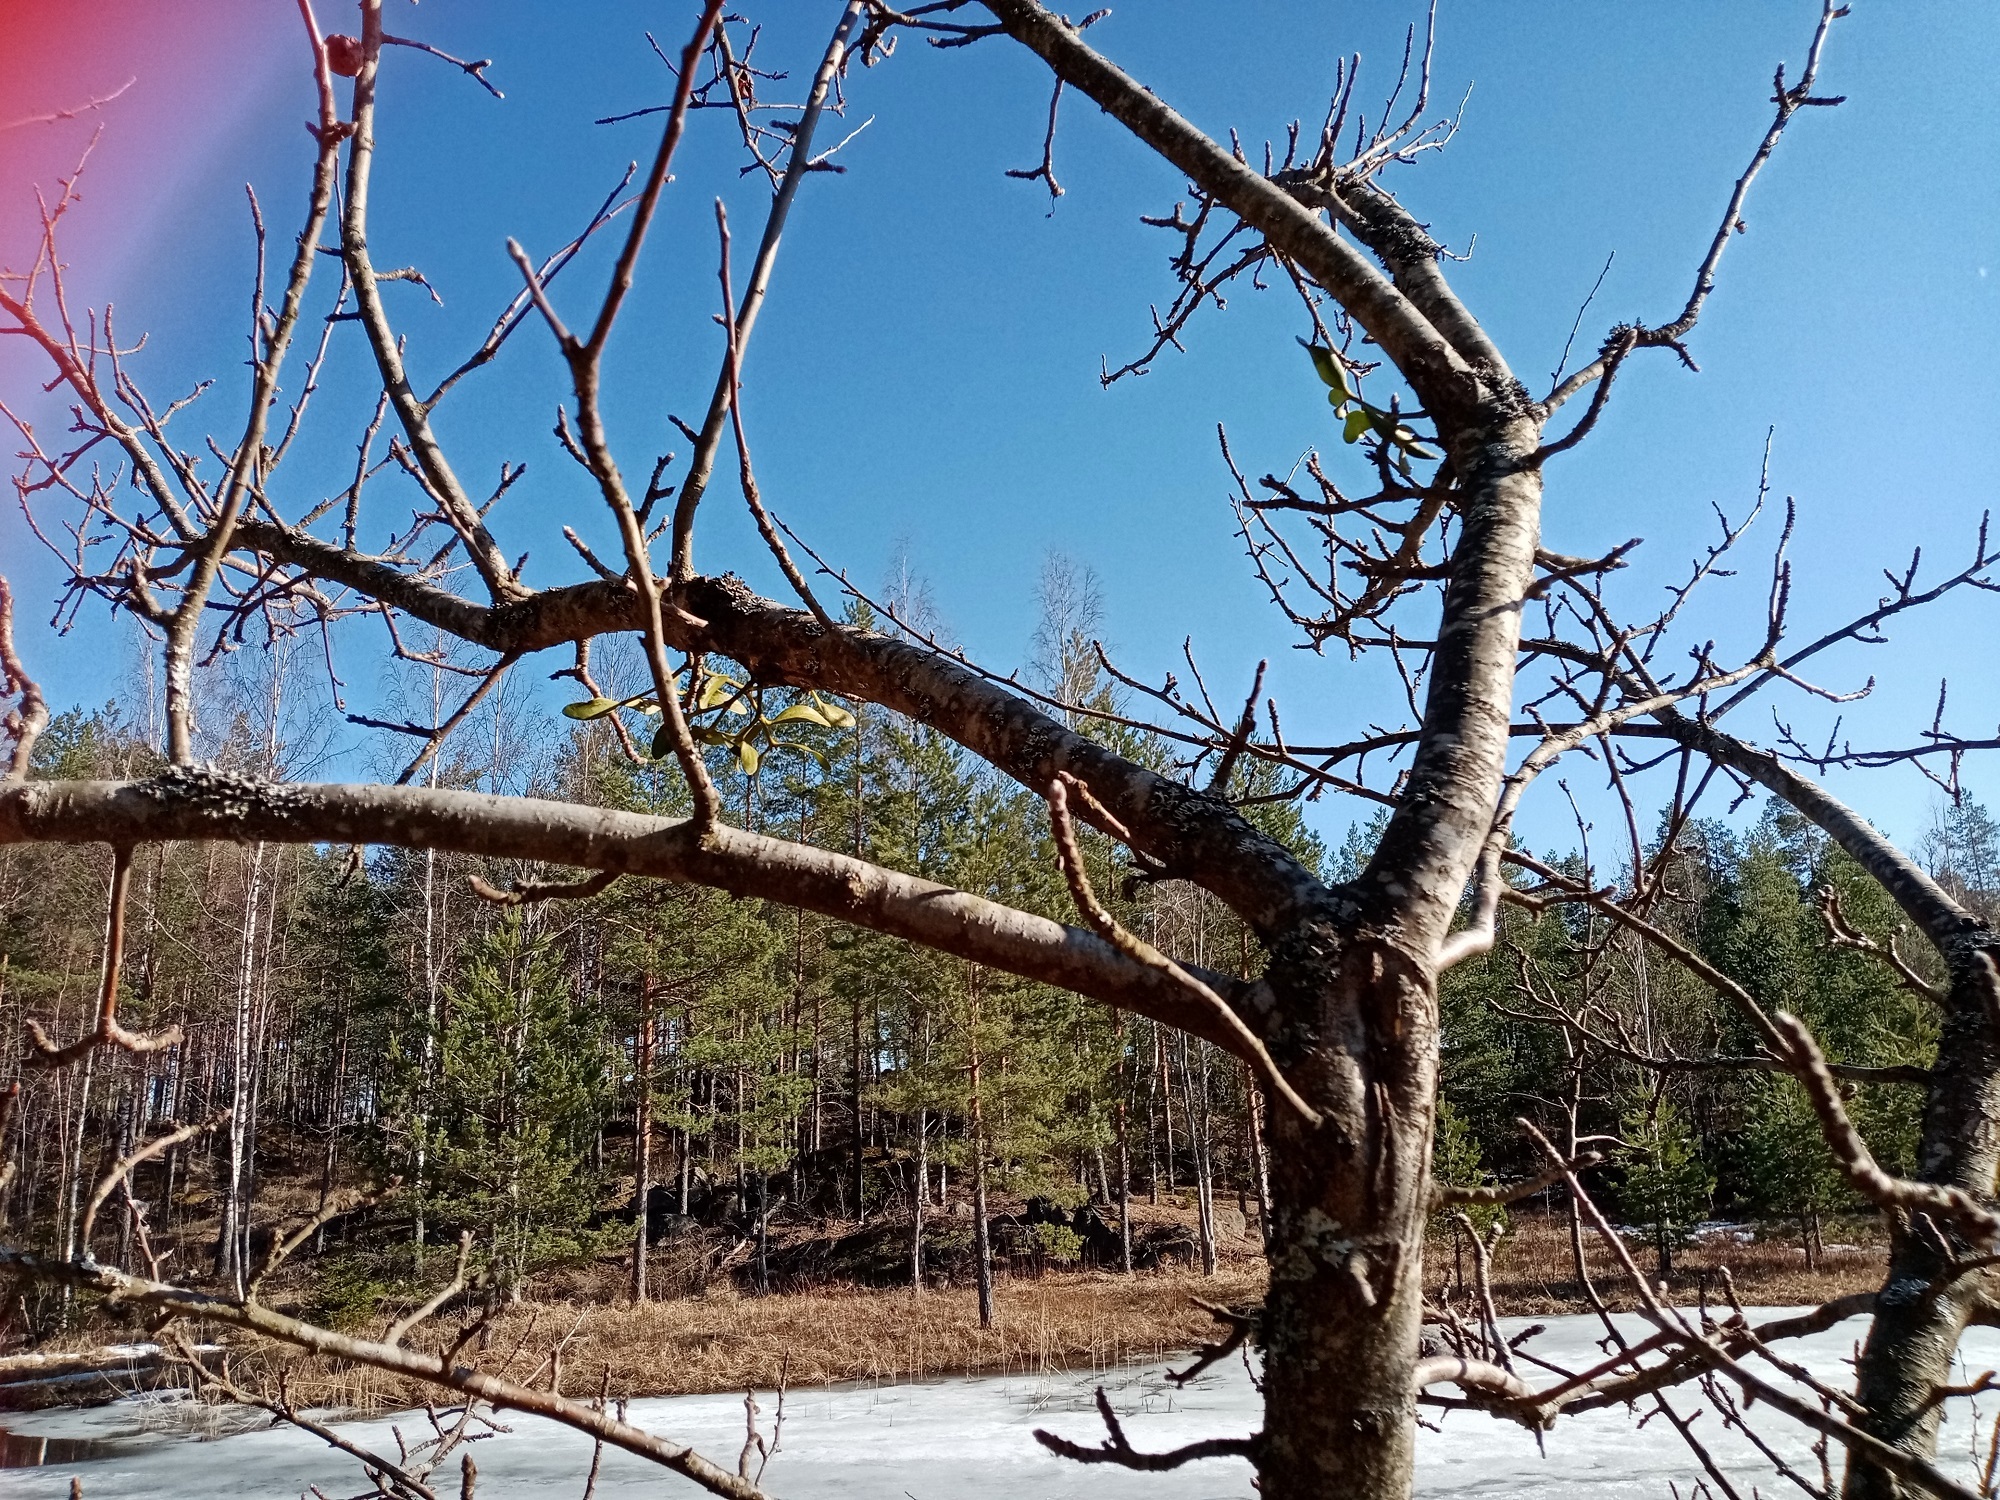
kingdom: Plantae
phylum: Tracheophyta
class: Magnoliopsida
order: Santalales
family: Viscaceae
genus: Viscum
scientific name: Viscum album
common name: Mistletoe
